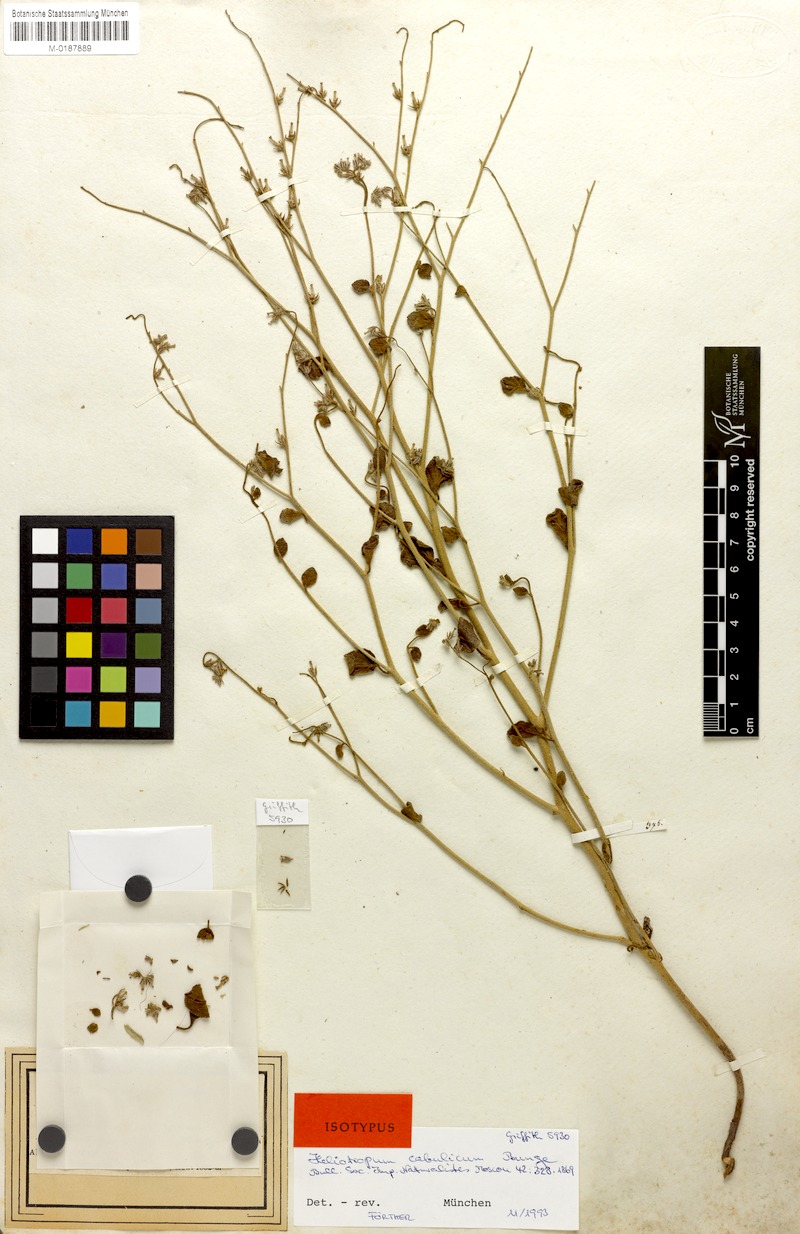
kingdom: Plantae
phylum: Tracheophyta
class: Magnoliopsida
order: Boraginales
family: Heliotropiaceae
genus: Heliotropium
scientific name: Heliotropium cabulicum
